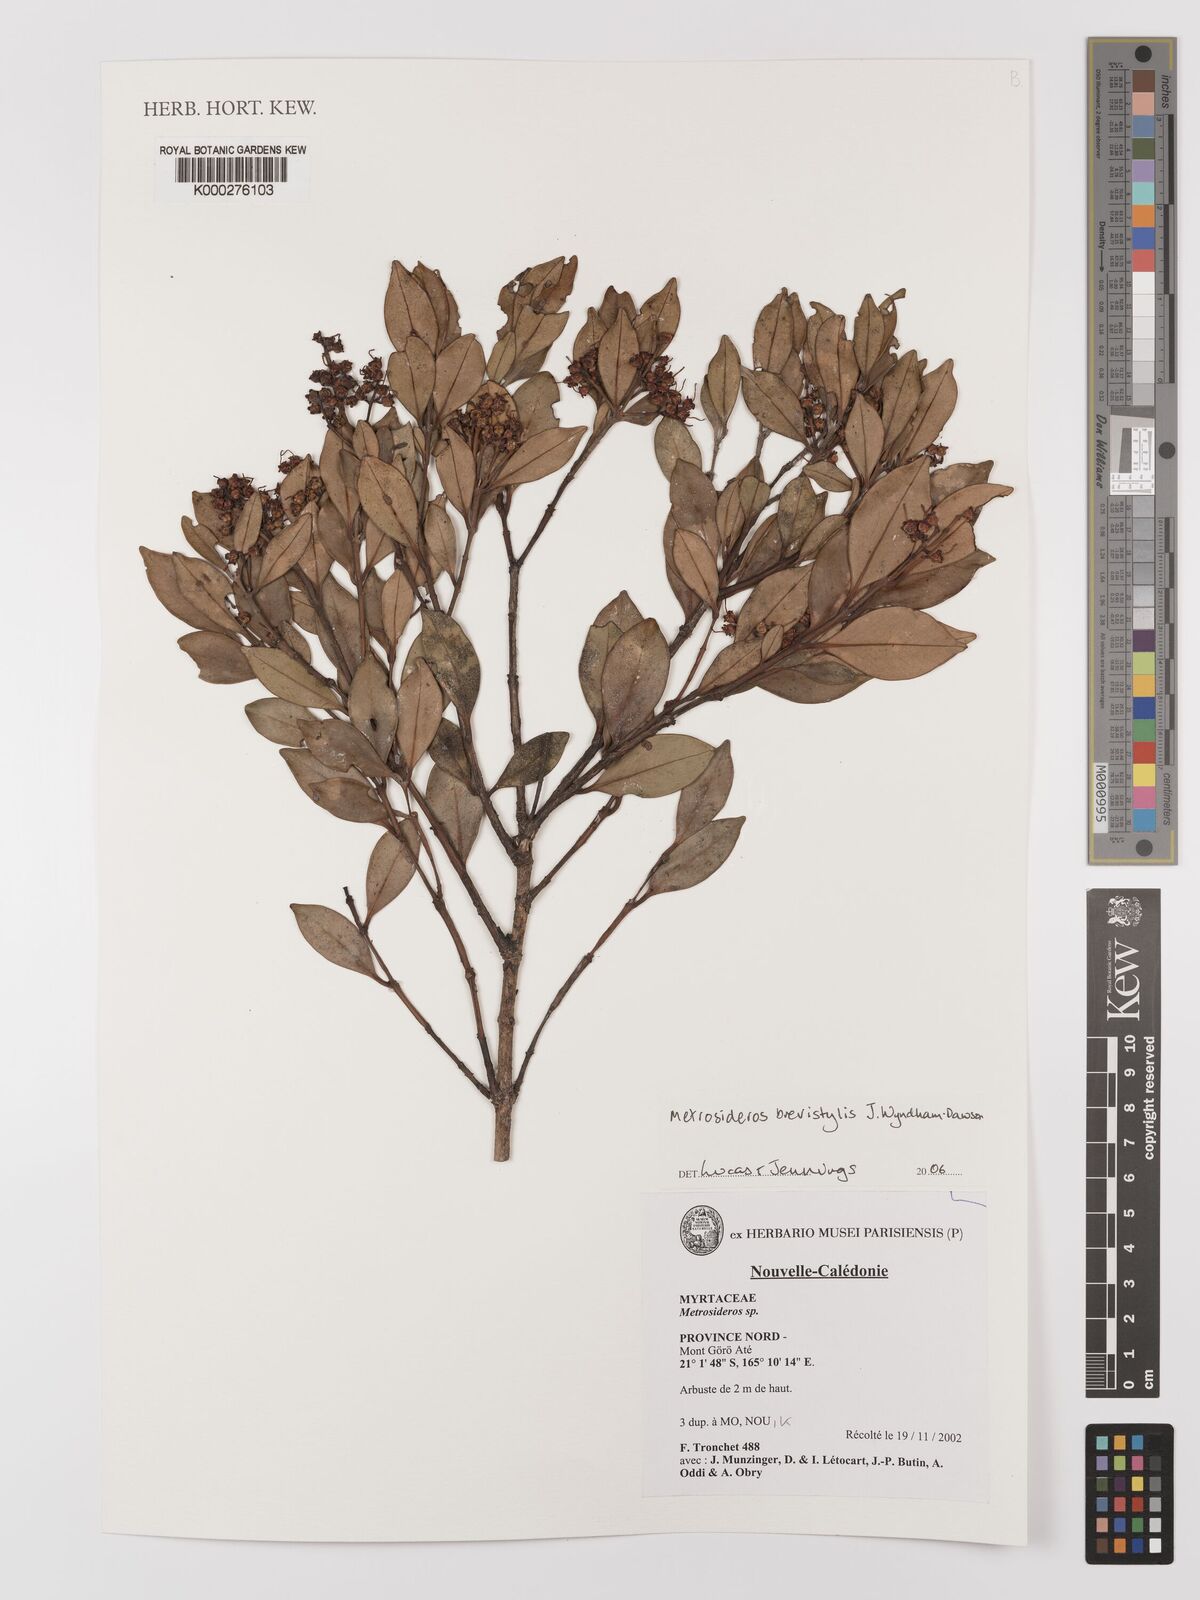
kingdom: Plantae
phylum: Tracheophyta
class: Magnoliopsida
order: Myrtales
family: Myrtaceae
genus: Metrosideros
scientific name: Metrosideros brevistylis
